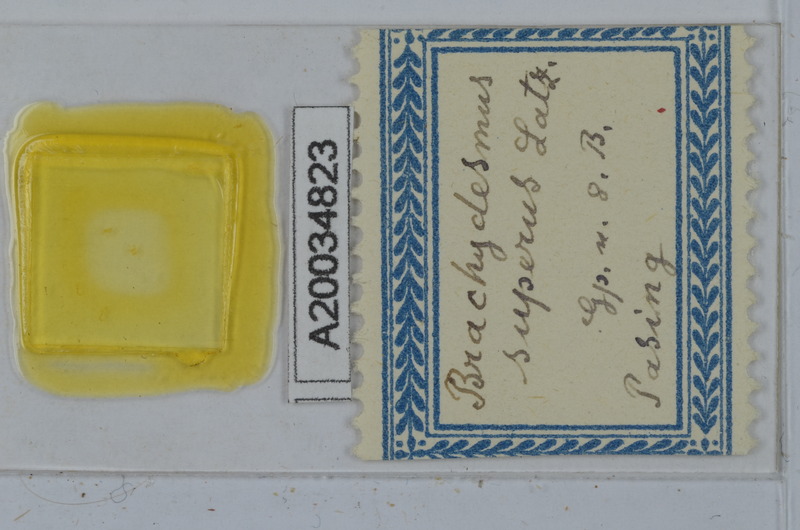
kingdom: Animalia
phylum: Arthropoda
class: Diplopoda
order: Polydesmida
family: Polydesmidae
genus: Brachydesmus
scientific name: Brachydesmus superus
